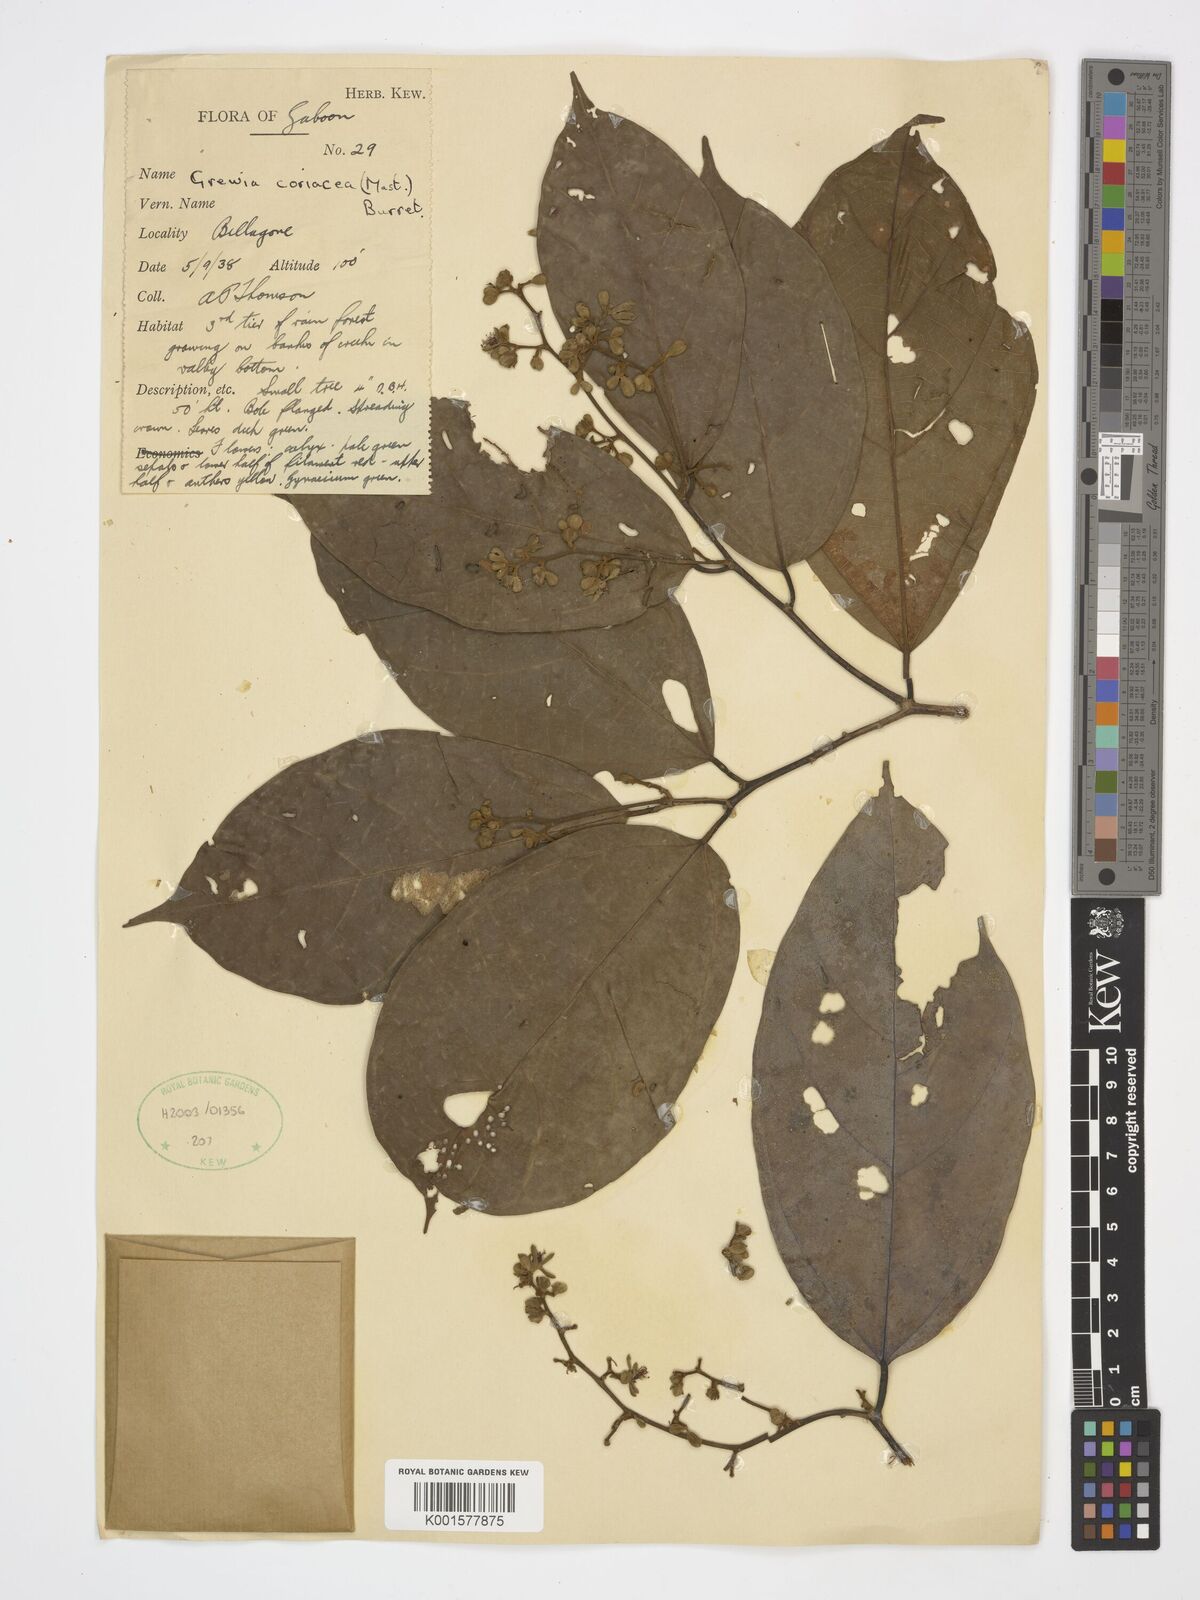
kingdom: Plantae
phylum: Tracheophyta
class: Magnoliopsida
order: Malvales
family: Malvaceae
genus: Microcos
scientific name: Microcos coriacea
